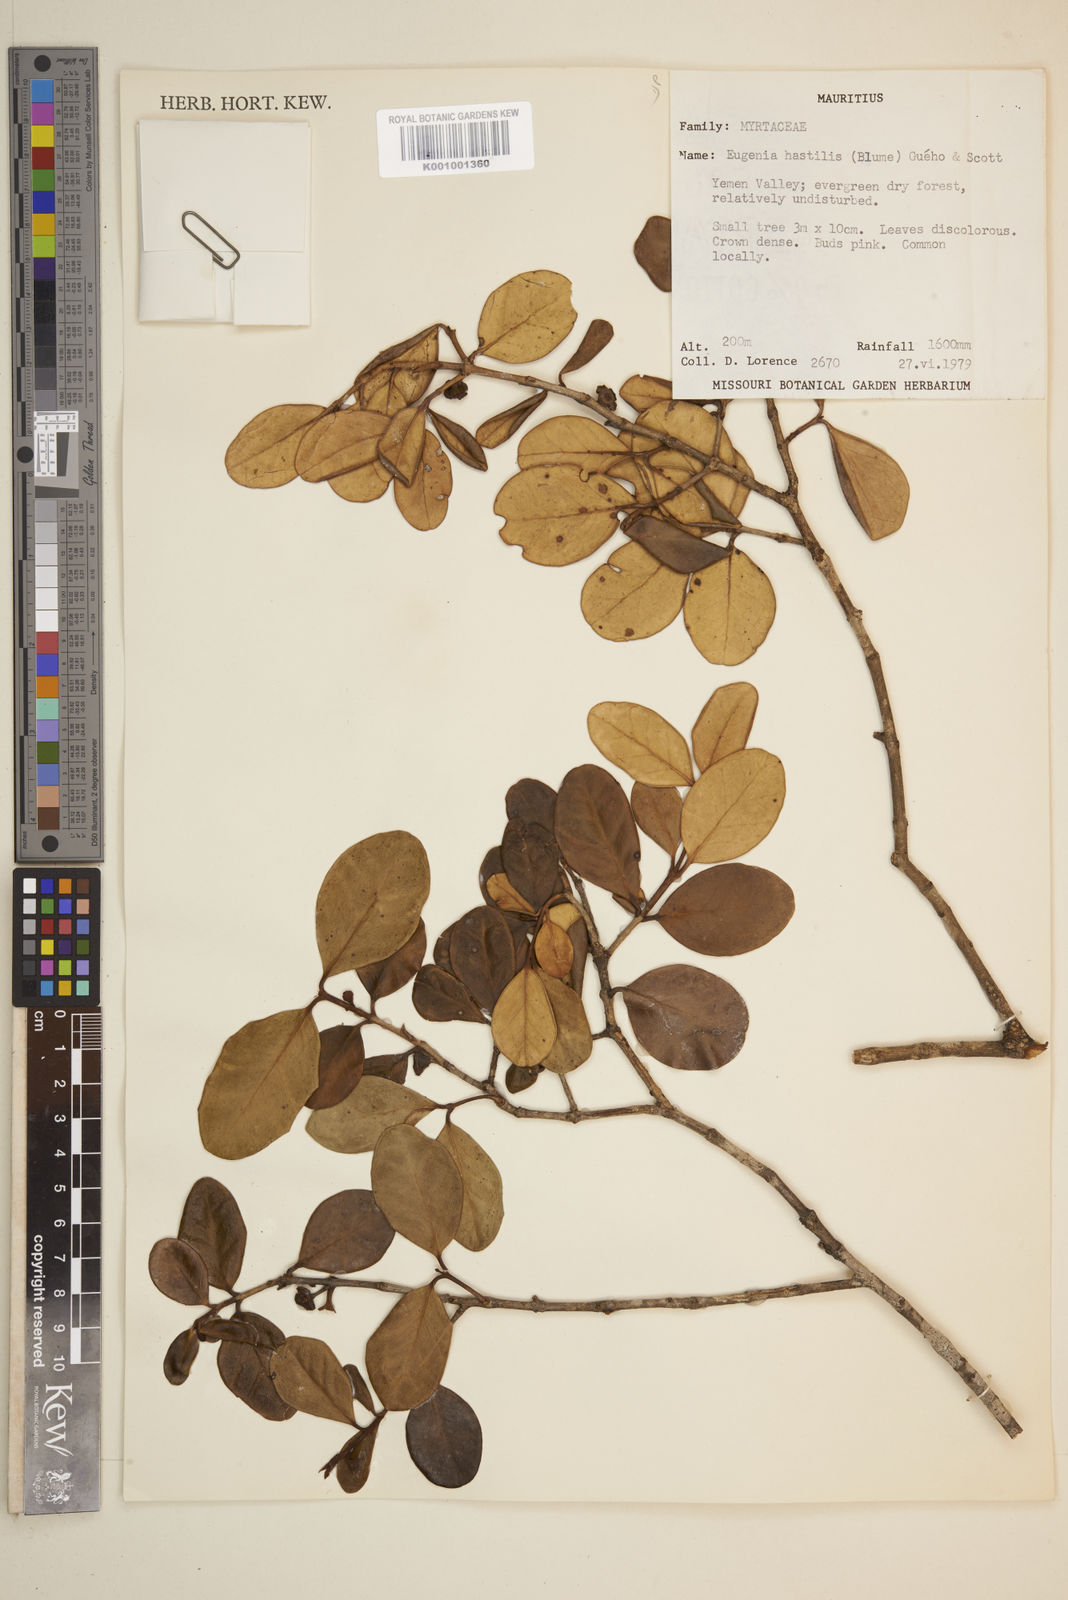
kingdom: Plantae
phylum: Tracheophyta
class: Magnoliopsida
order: Myrtales
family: Myrtaceae
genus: Eugenia
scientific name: Eugenia
